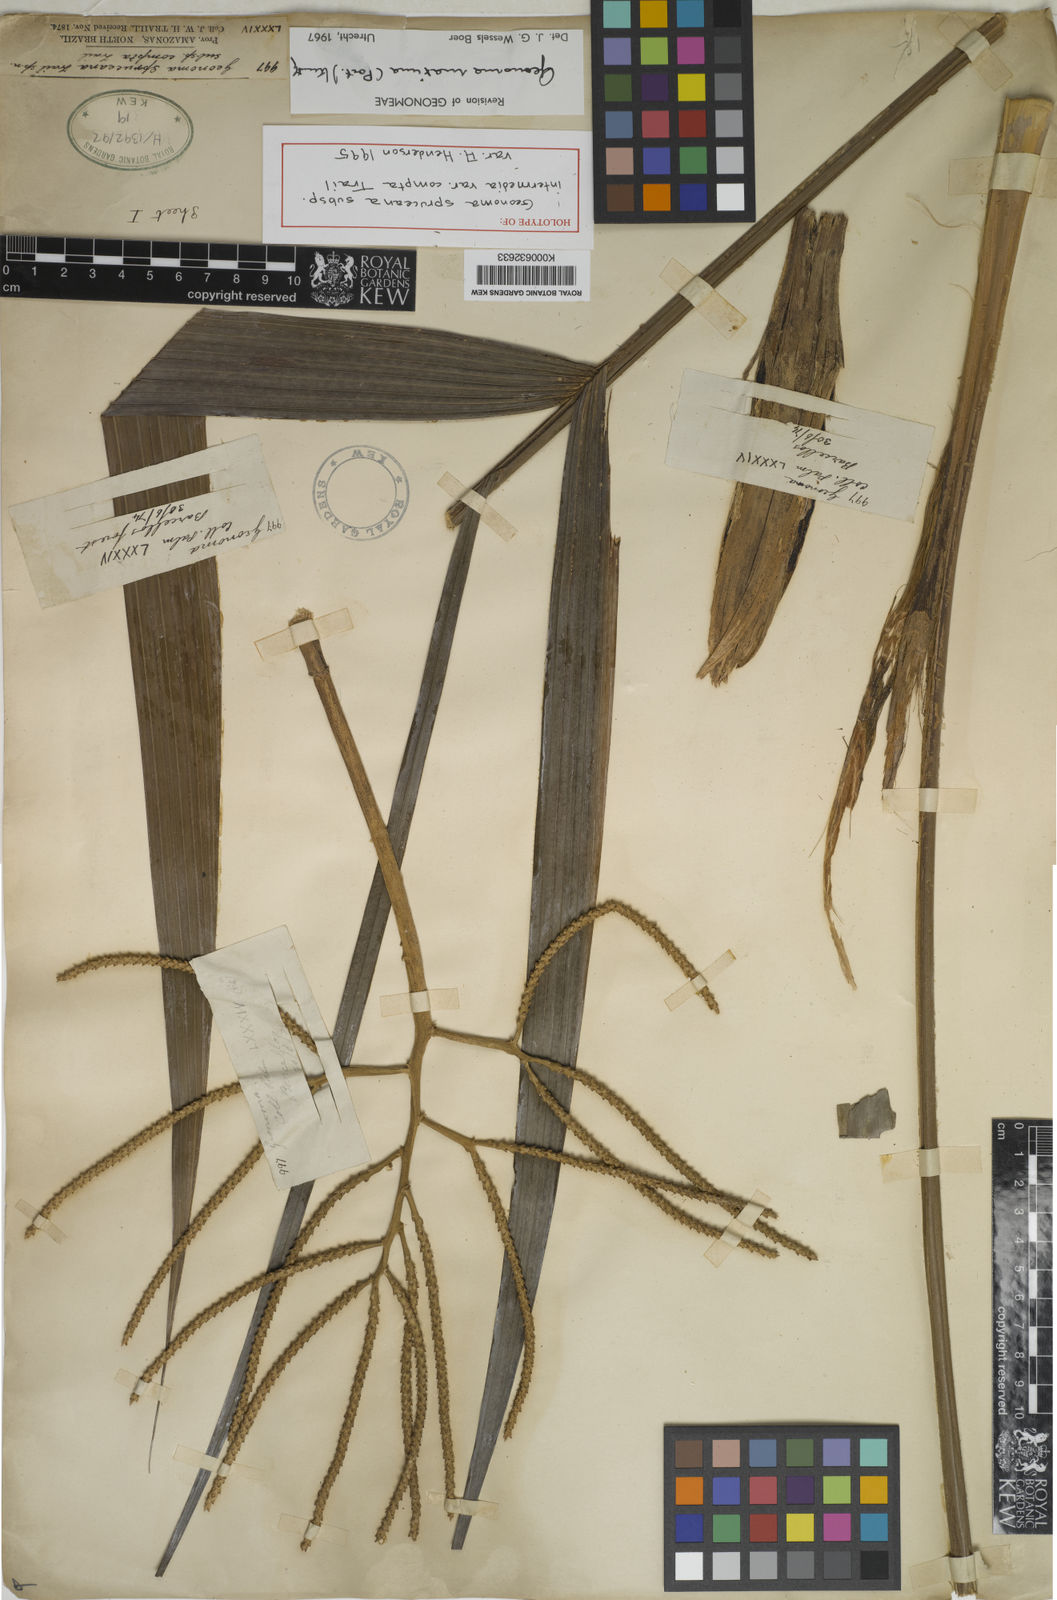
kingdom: Plantae
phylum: Tracheophyta
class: Liliopsida
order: Arecales
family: Arecaceae
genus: Geonoma
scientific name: Geonoma maxima
